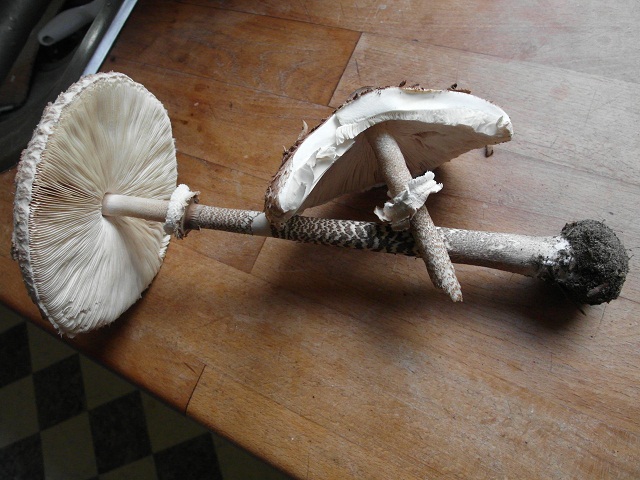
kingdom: Fungi
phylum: Basidiomycota
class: Agaricomycetes
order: Agaricales
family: Agaricaceae
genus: Macrolepiota
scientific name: Macrolepiota procera
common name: stor kæmpeparasolhat
